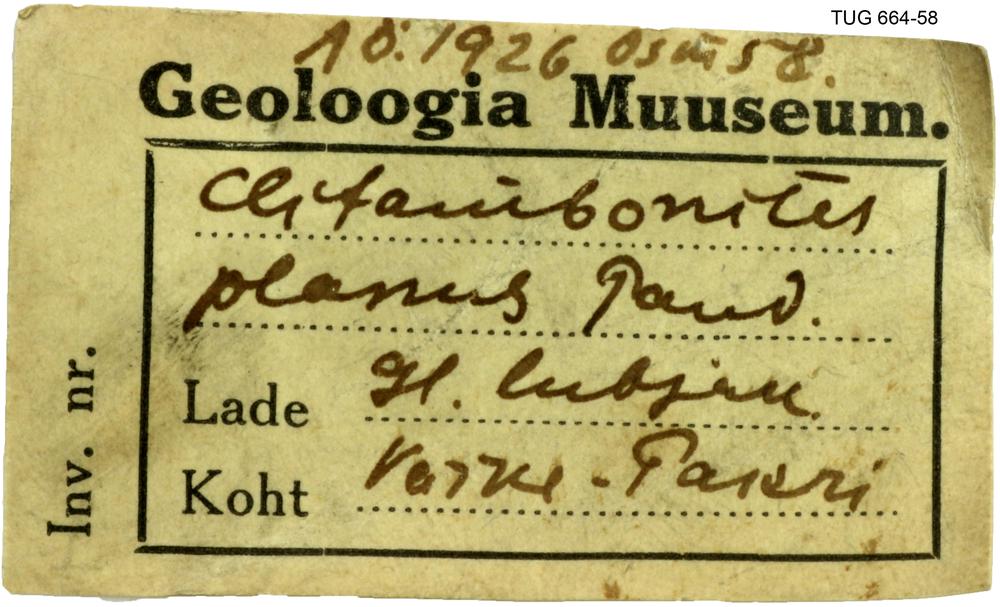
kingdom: Animalia
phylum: Brachiopoda
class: Rhynchonellata
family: Clitambonitidae
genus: Clitambonites
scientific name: Clitambonites squamatus
